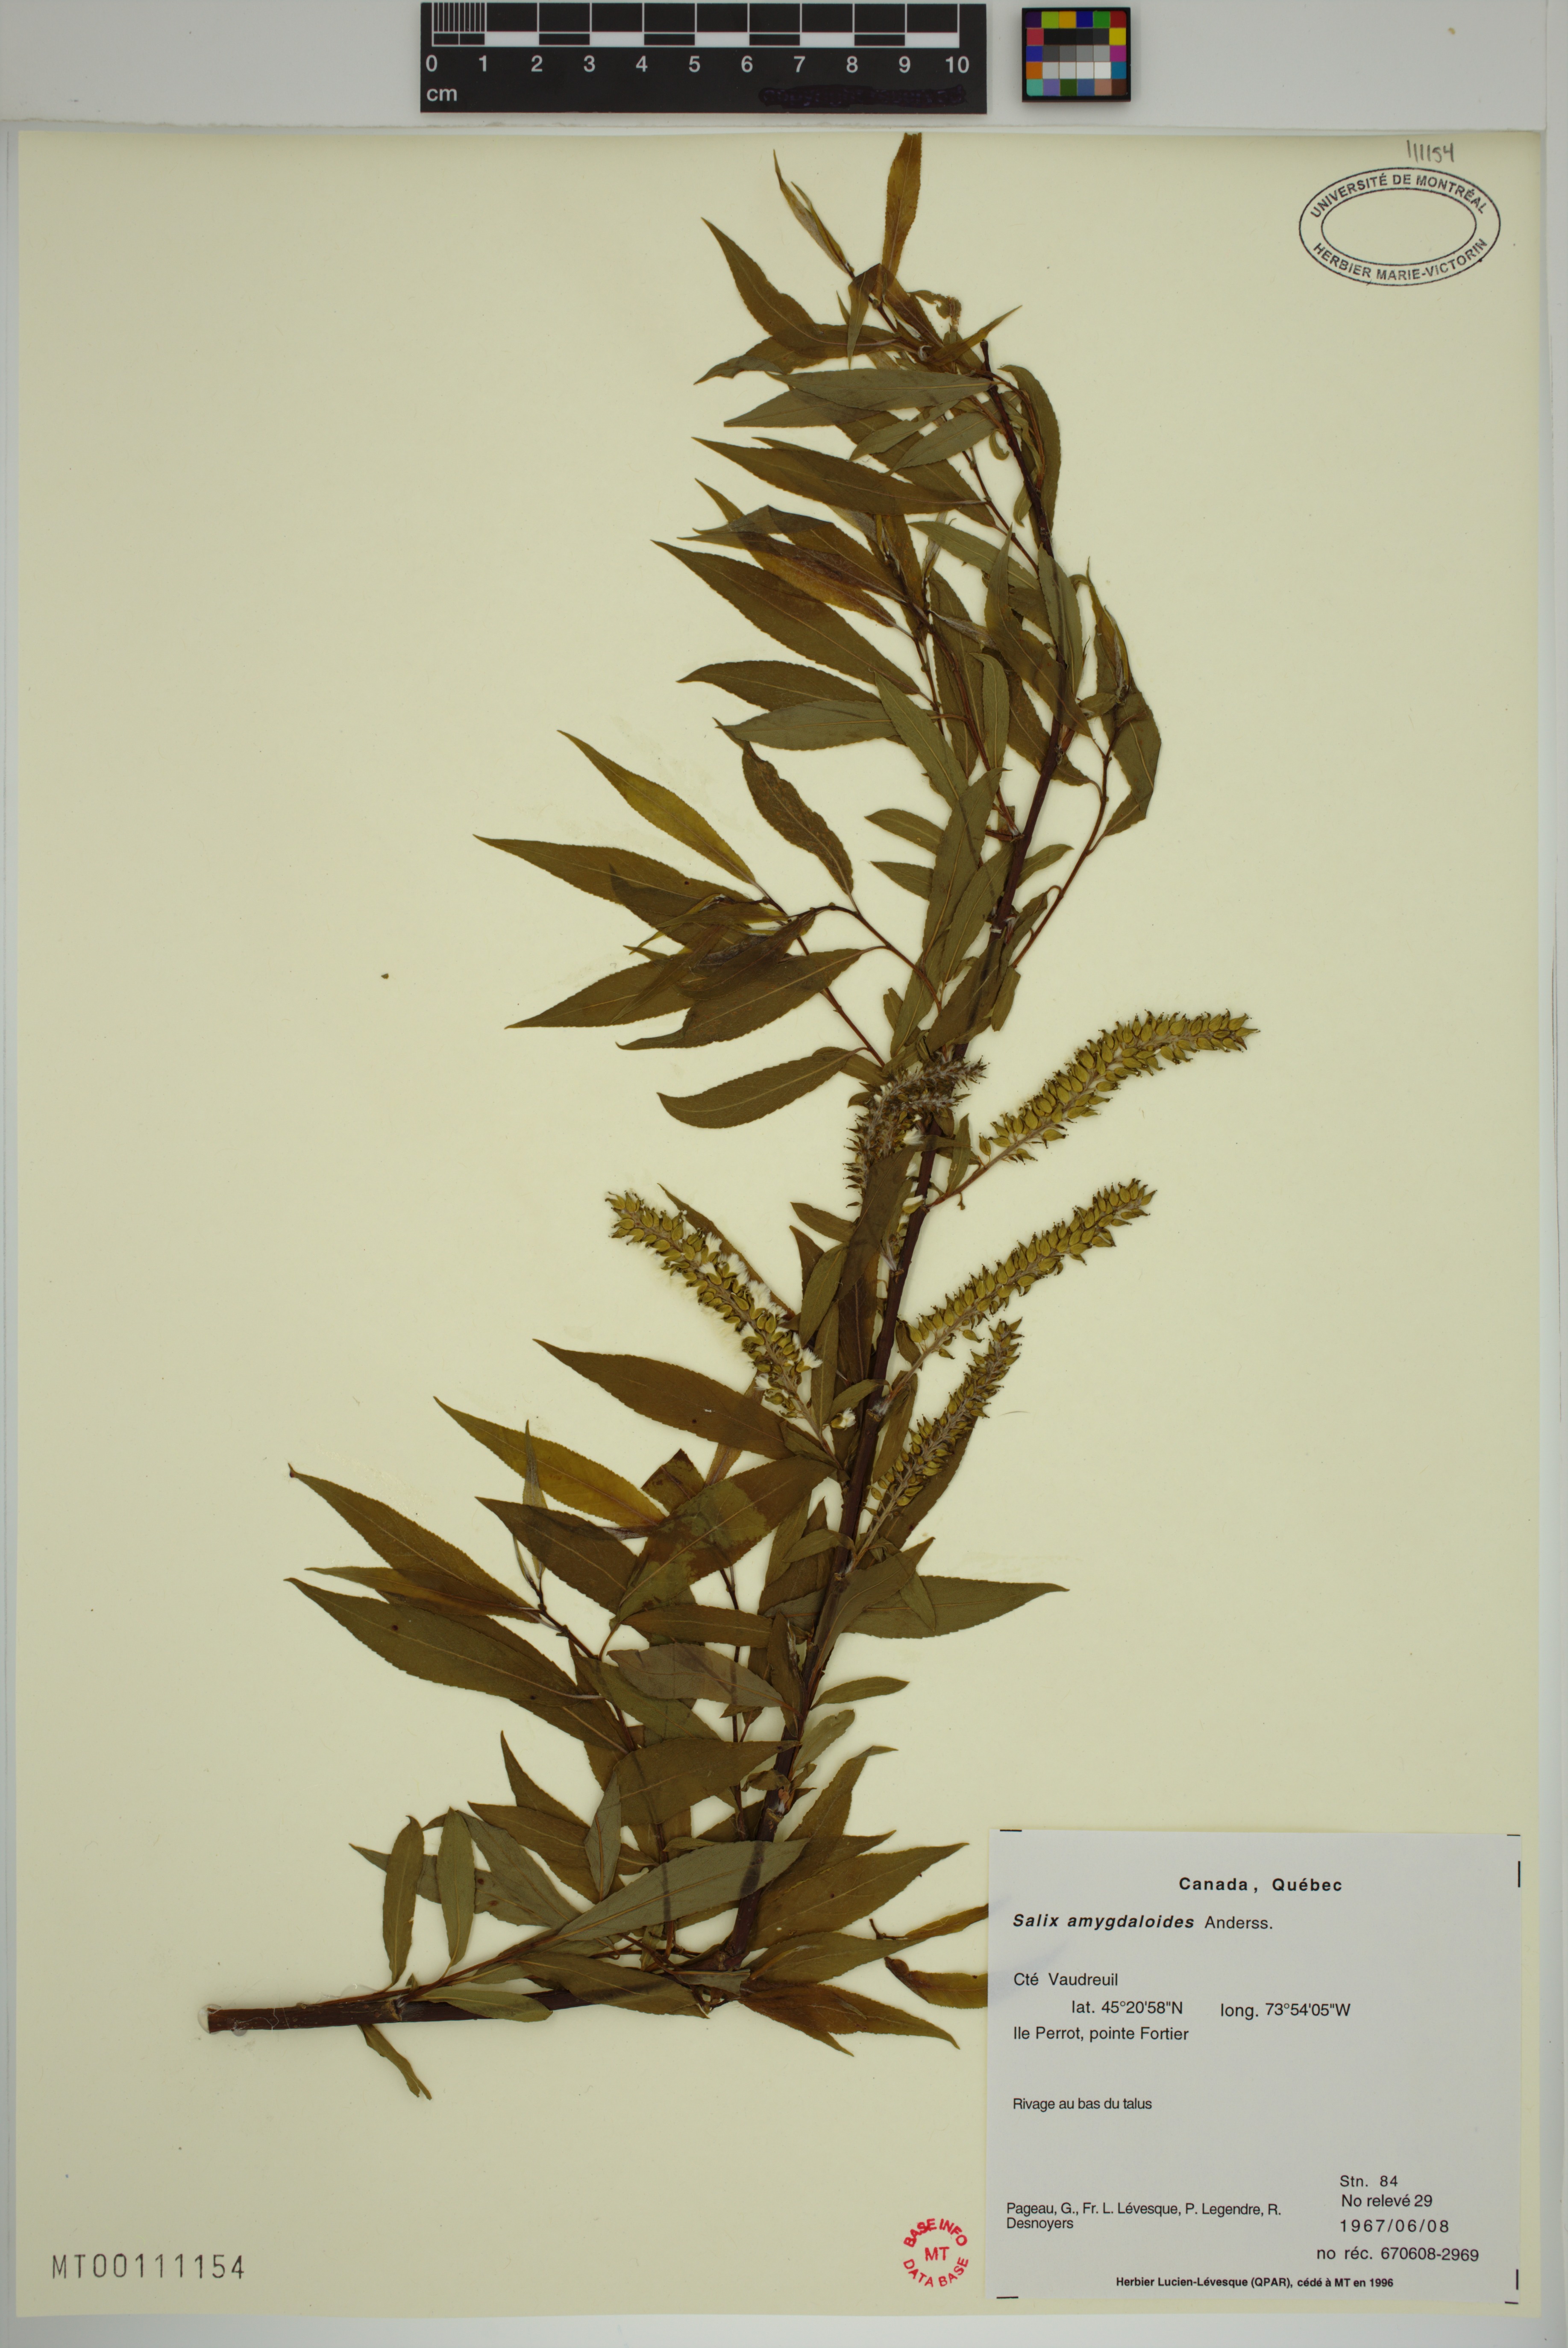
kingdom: Plantae
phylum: Tracheophyta
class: Magnoliopsida
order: Malpighiales
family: Salicaceae
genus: Salix
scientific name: Salix amygdaloides
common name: Peach leaf willow
